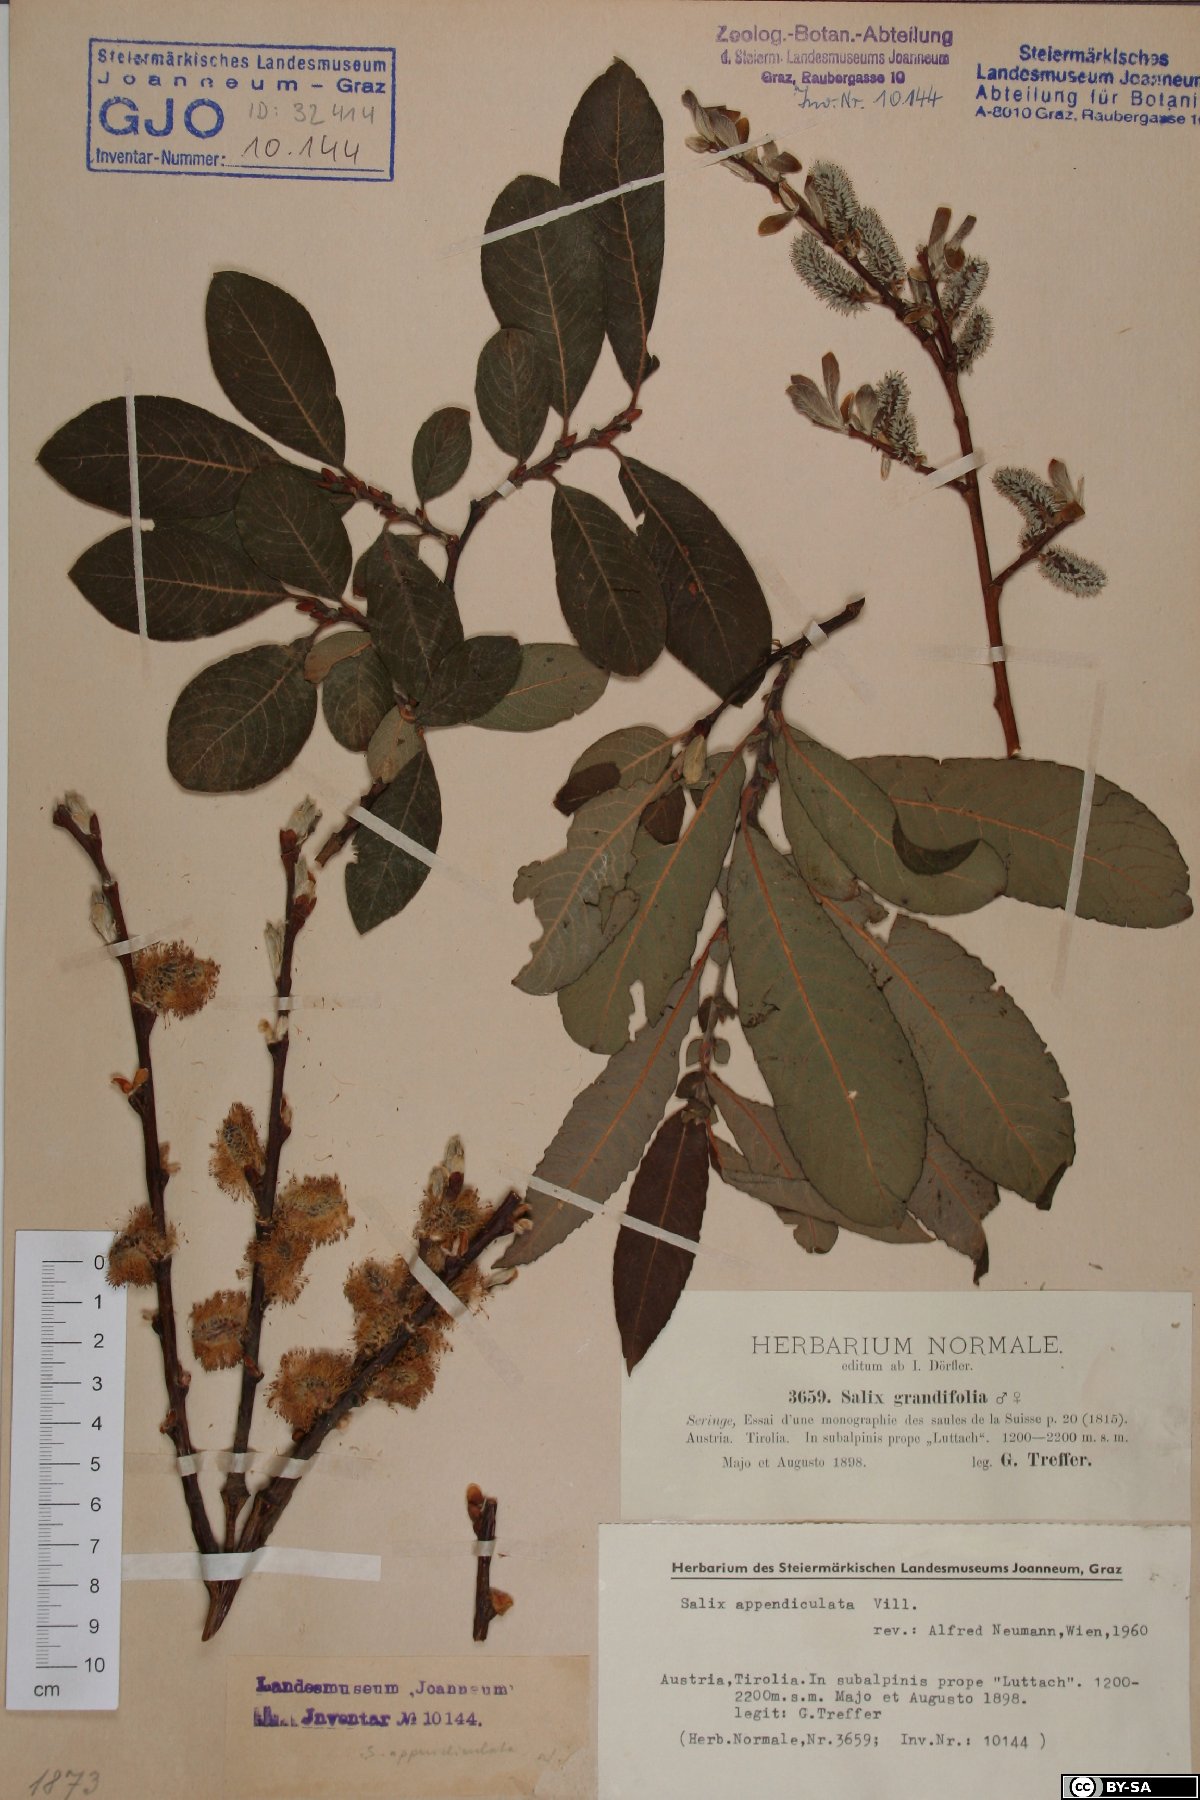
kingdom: Plantae
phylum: Tracheophyta
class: Magnoliopsida
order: Malpighiales
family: Salicaceae
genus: Salix
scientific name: Salix appendiculata
